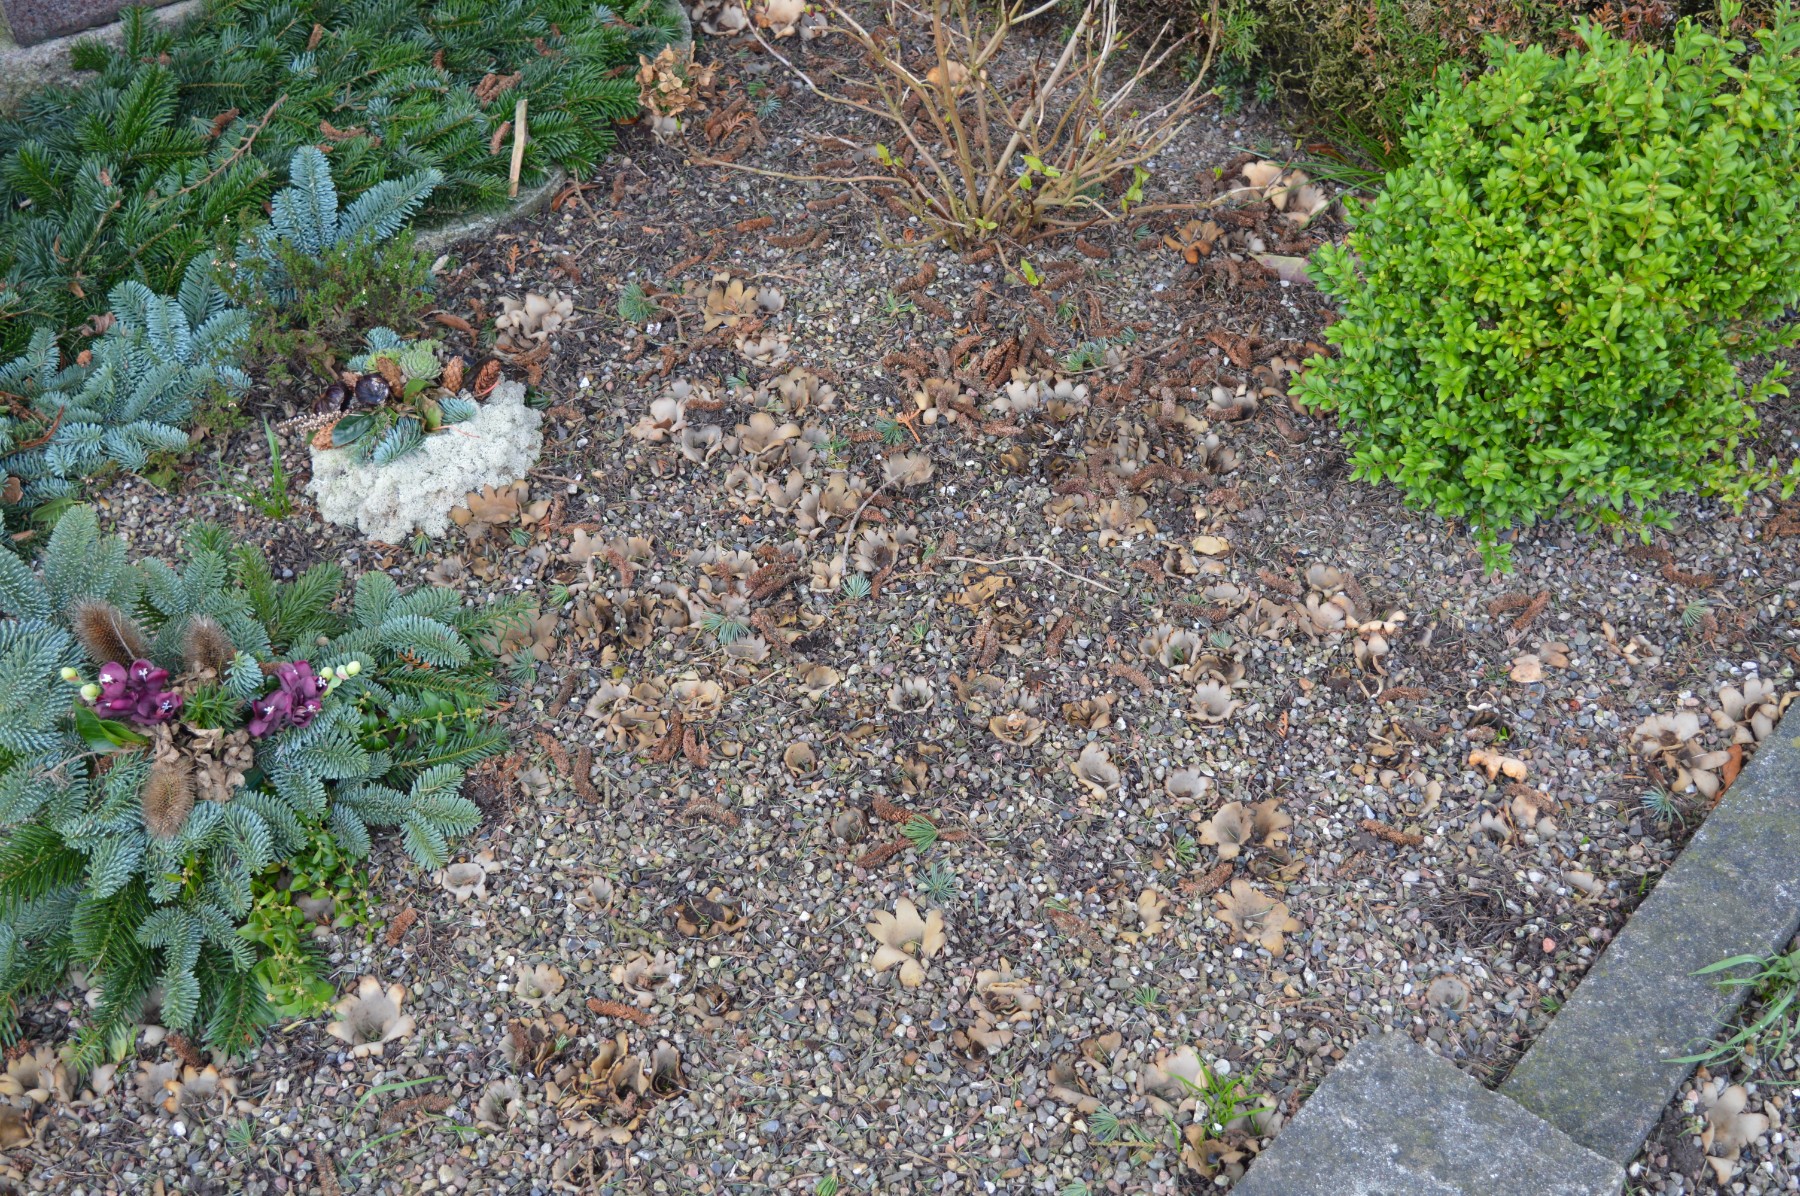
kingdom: Fungi
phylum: Ascomycota
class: Pezizomycetes
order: Pezizales
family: Pyronemataceae
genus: Geopora
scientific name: Geopora sumneriana
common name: vår-jordbæger
